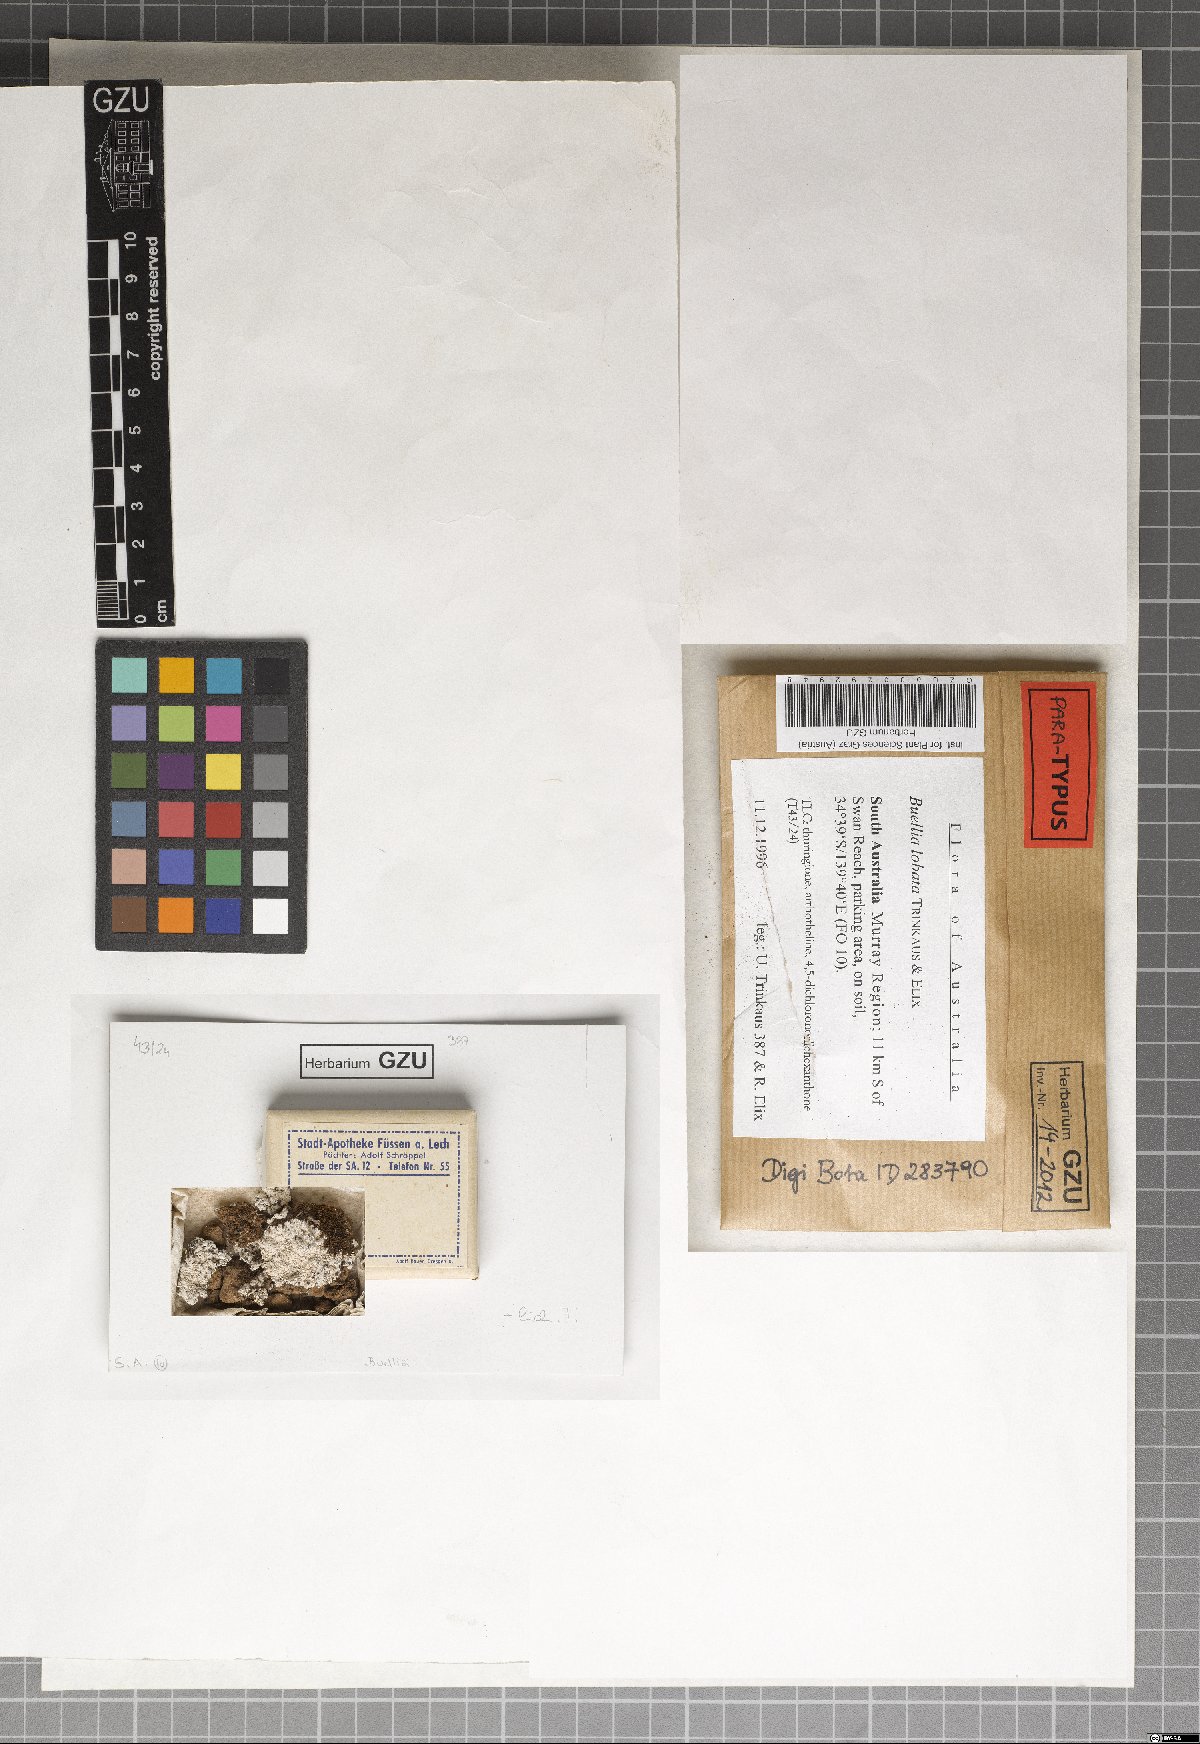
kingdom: Fungi
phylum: Ascomycota
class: Lecanoromycetes
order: Caliciales
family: Caliciaceae
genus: Buellia
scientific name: Buellia lobata
